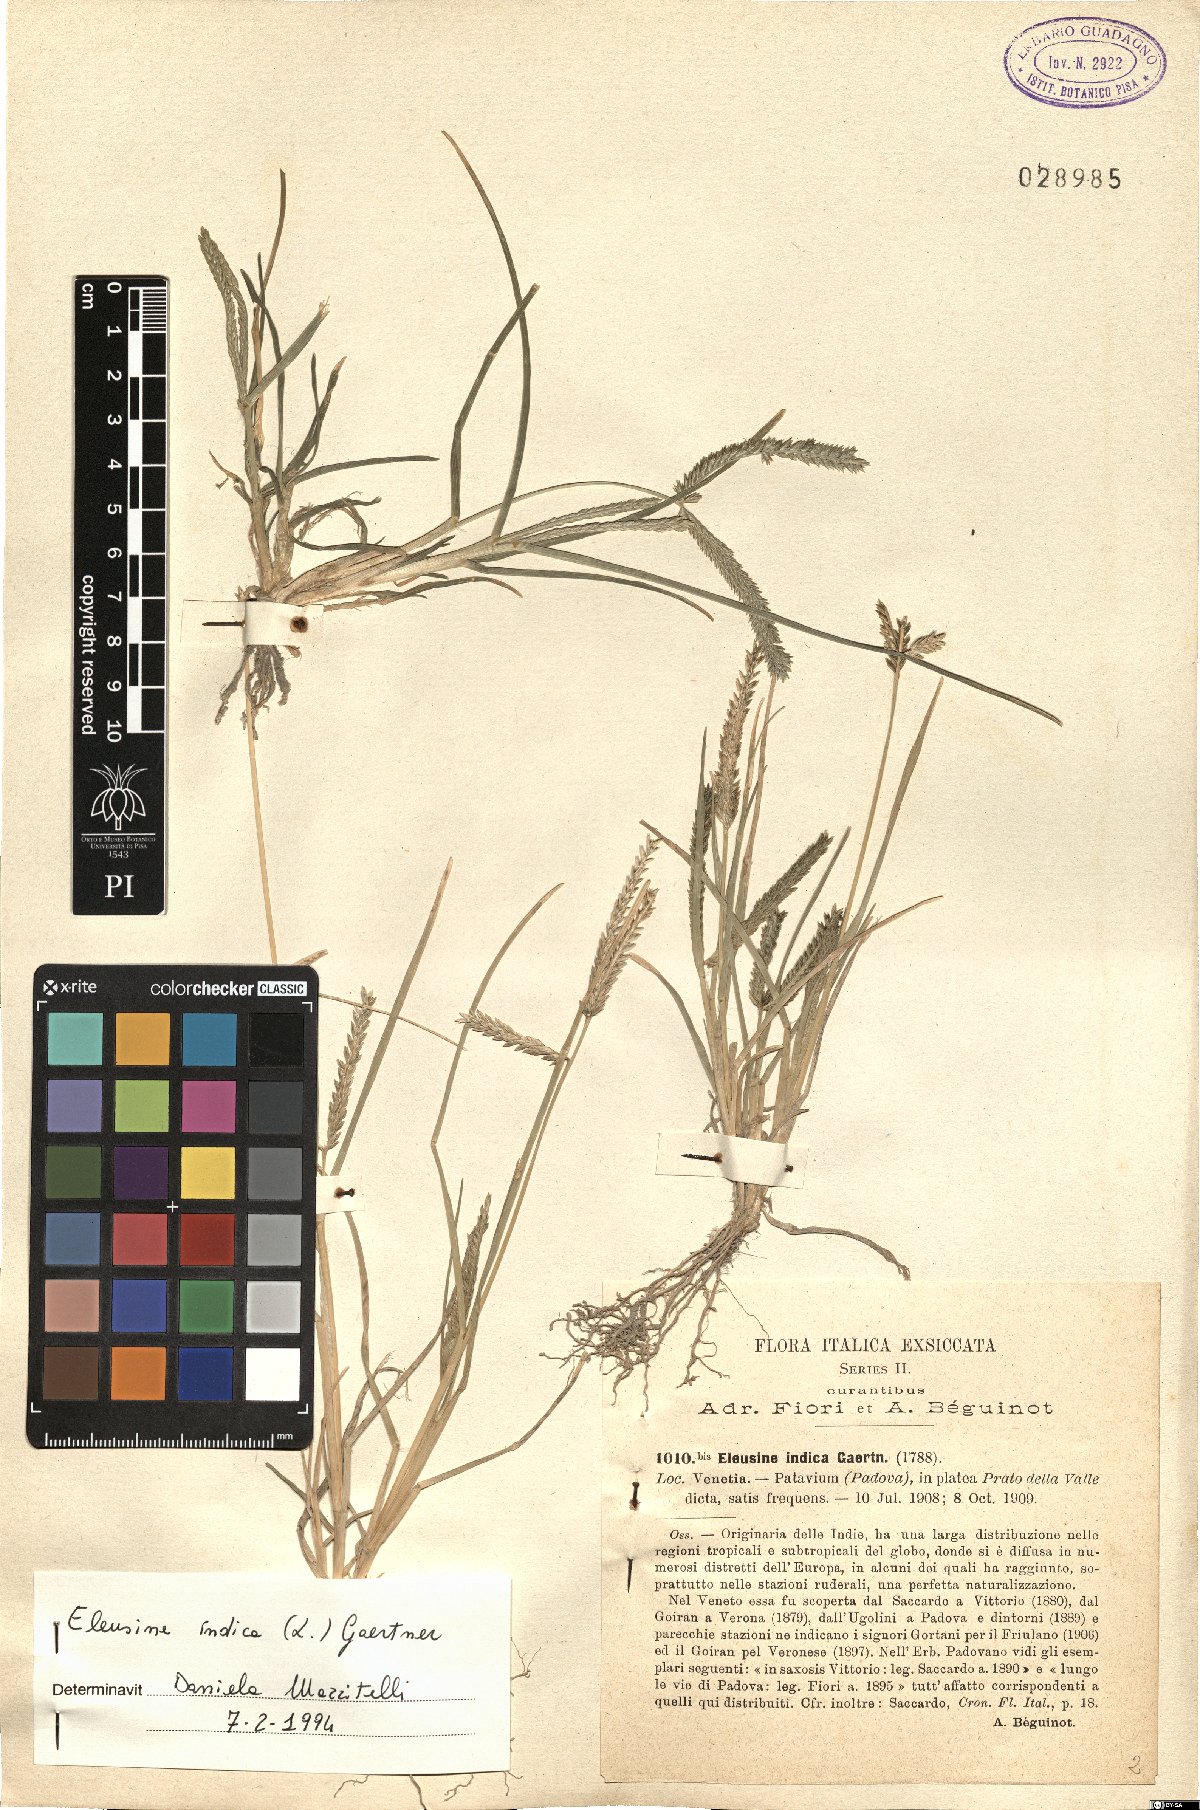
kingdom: Plantae
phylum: Tracheophyta
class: Liliopsida
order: Poales
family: Poaceae
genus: Eleusine
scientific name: Eleusine indica
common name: Yard-grass
